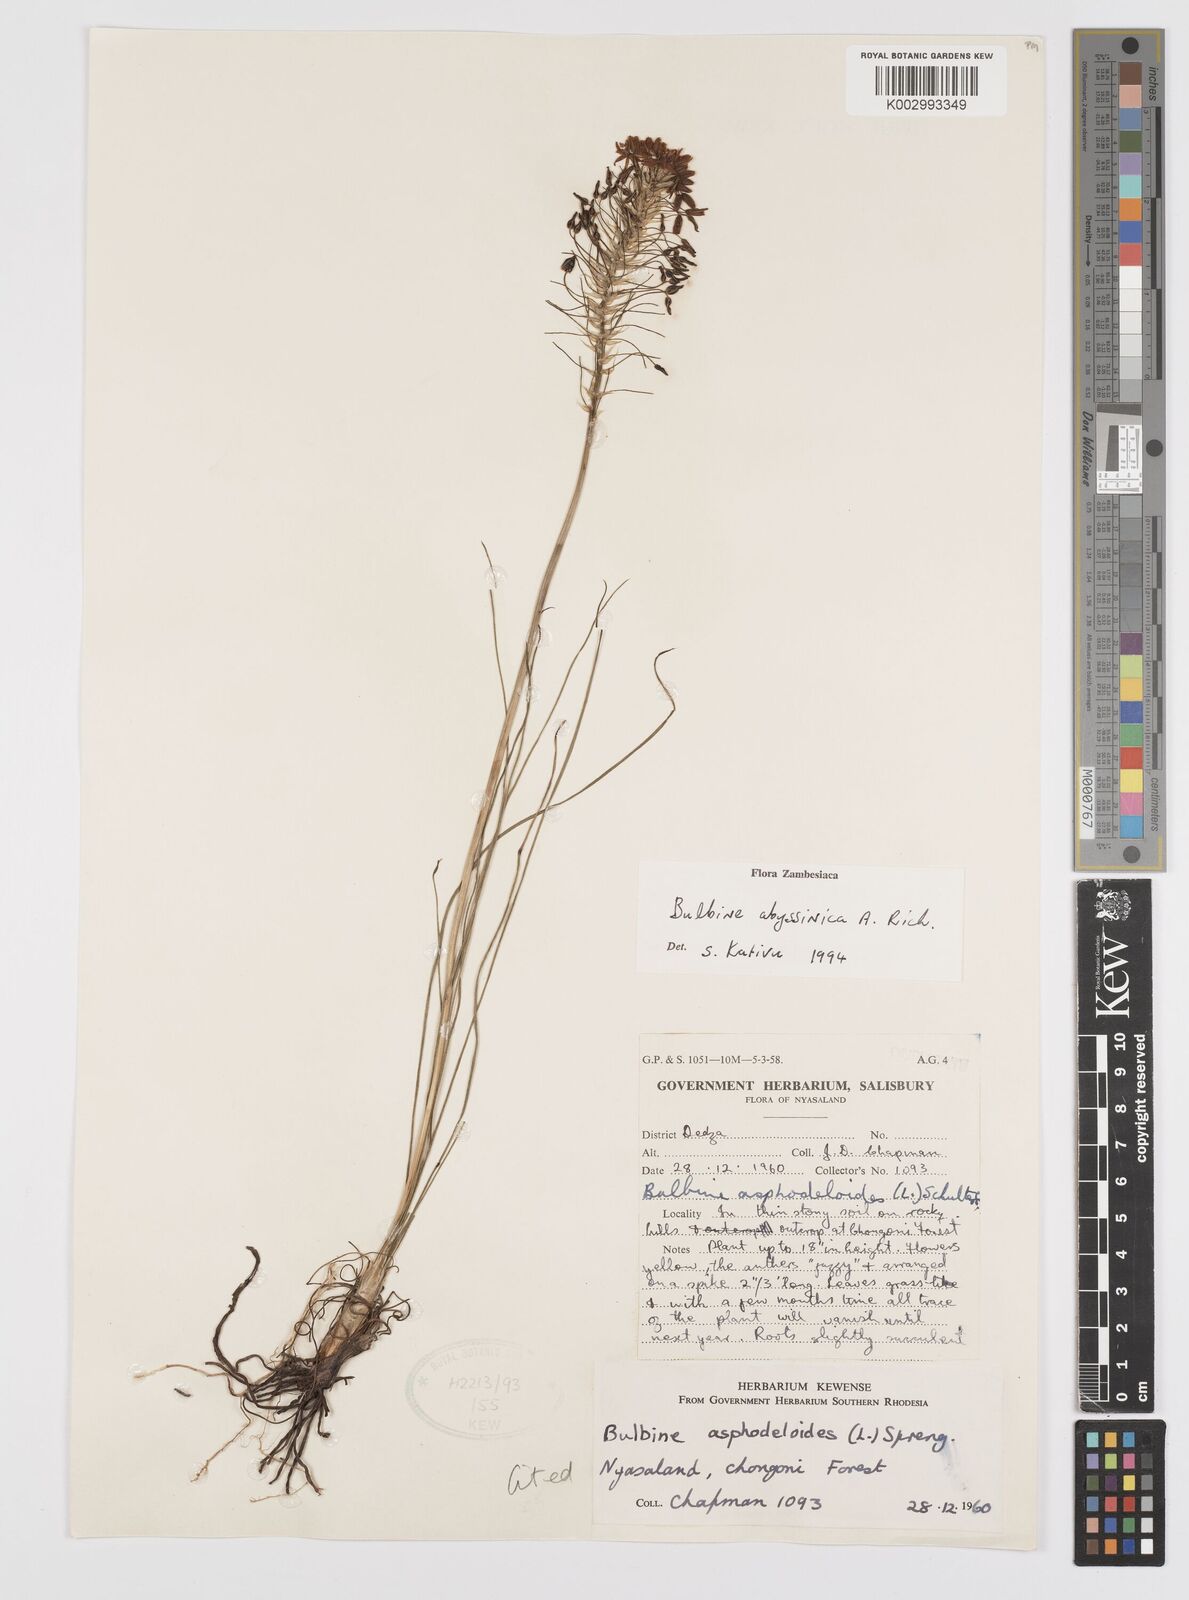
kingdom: Plantae
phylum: Tracheophyta
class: Liliopsida
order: Asparagales
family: Asphodelaceae
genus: Bulbine
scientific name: Bulbine abyssinica
